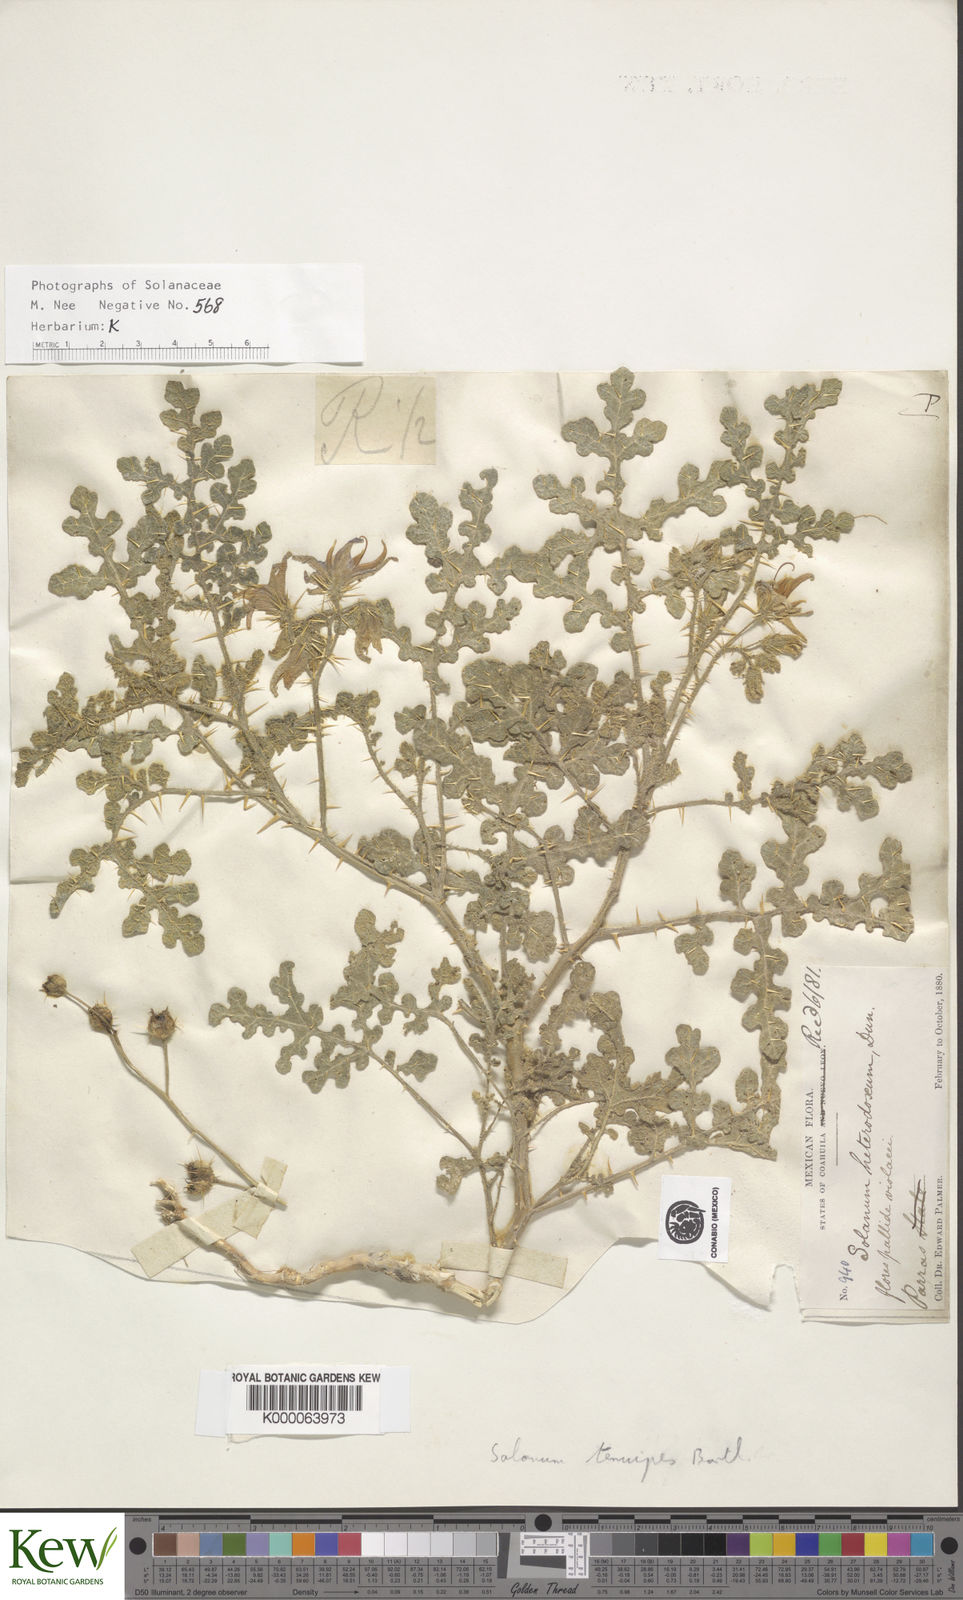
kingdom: Plantae
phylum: Tracheophyta
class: Magnoliopsida
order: Solanales
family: Solanaceae
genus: Solanum
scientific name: Solanum tenuipes
